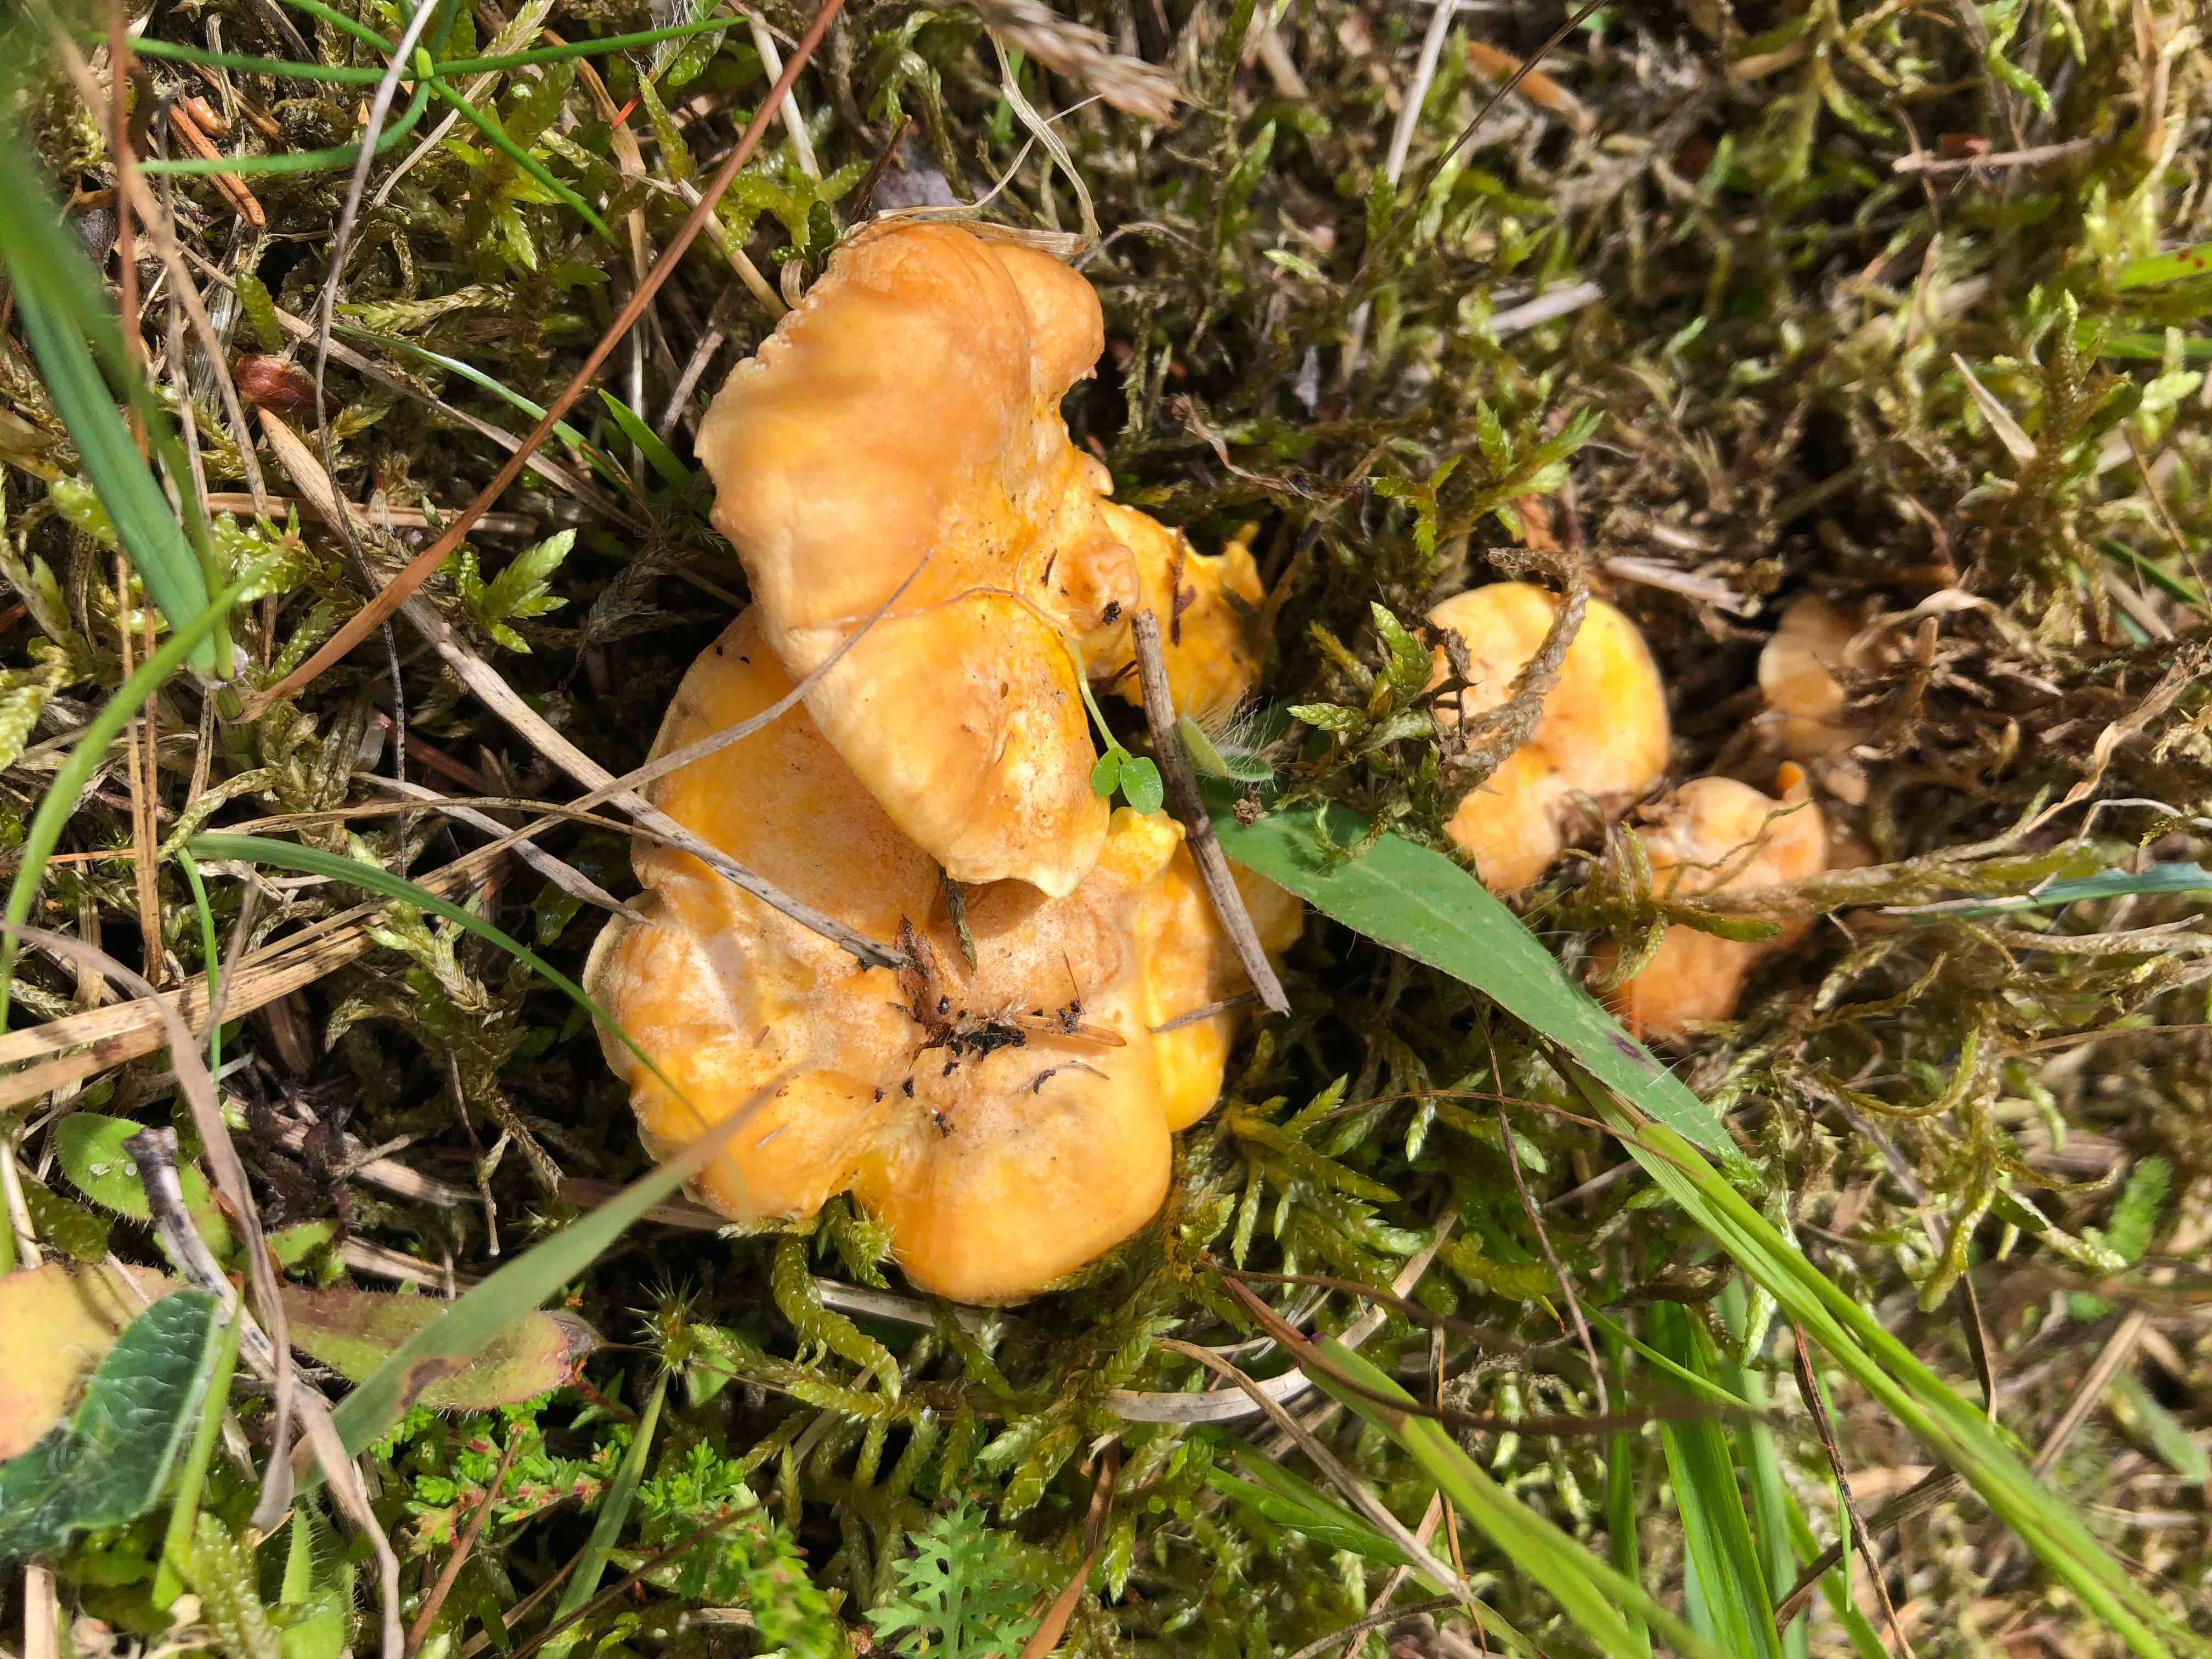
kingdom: Fungi
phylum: Basidiomycota
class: Agaricomycetes
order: Cantharellales
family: Hydnaceae
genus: Cantharellus
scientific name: Cantharellus cibarius
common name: almindelig kantarel
